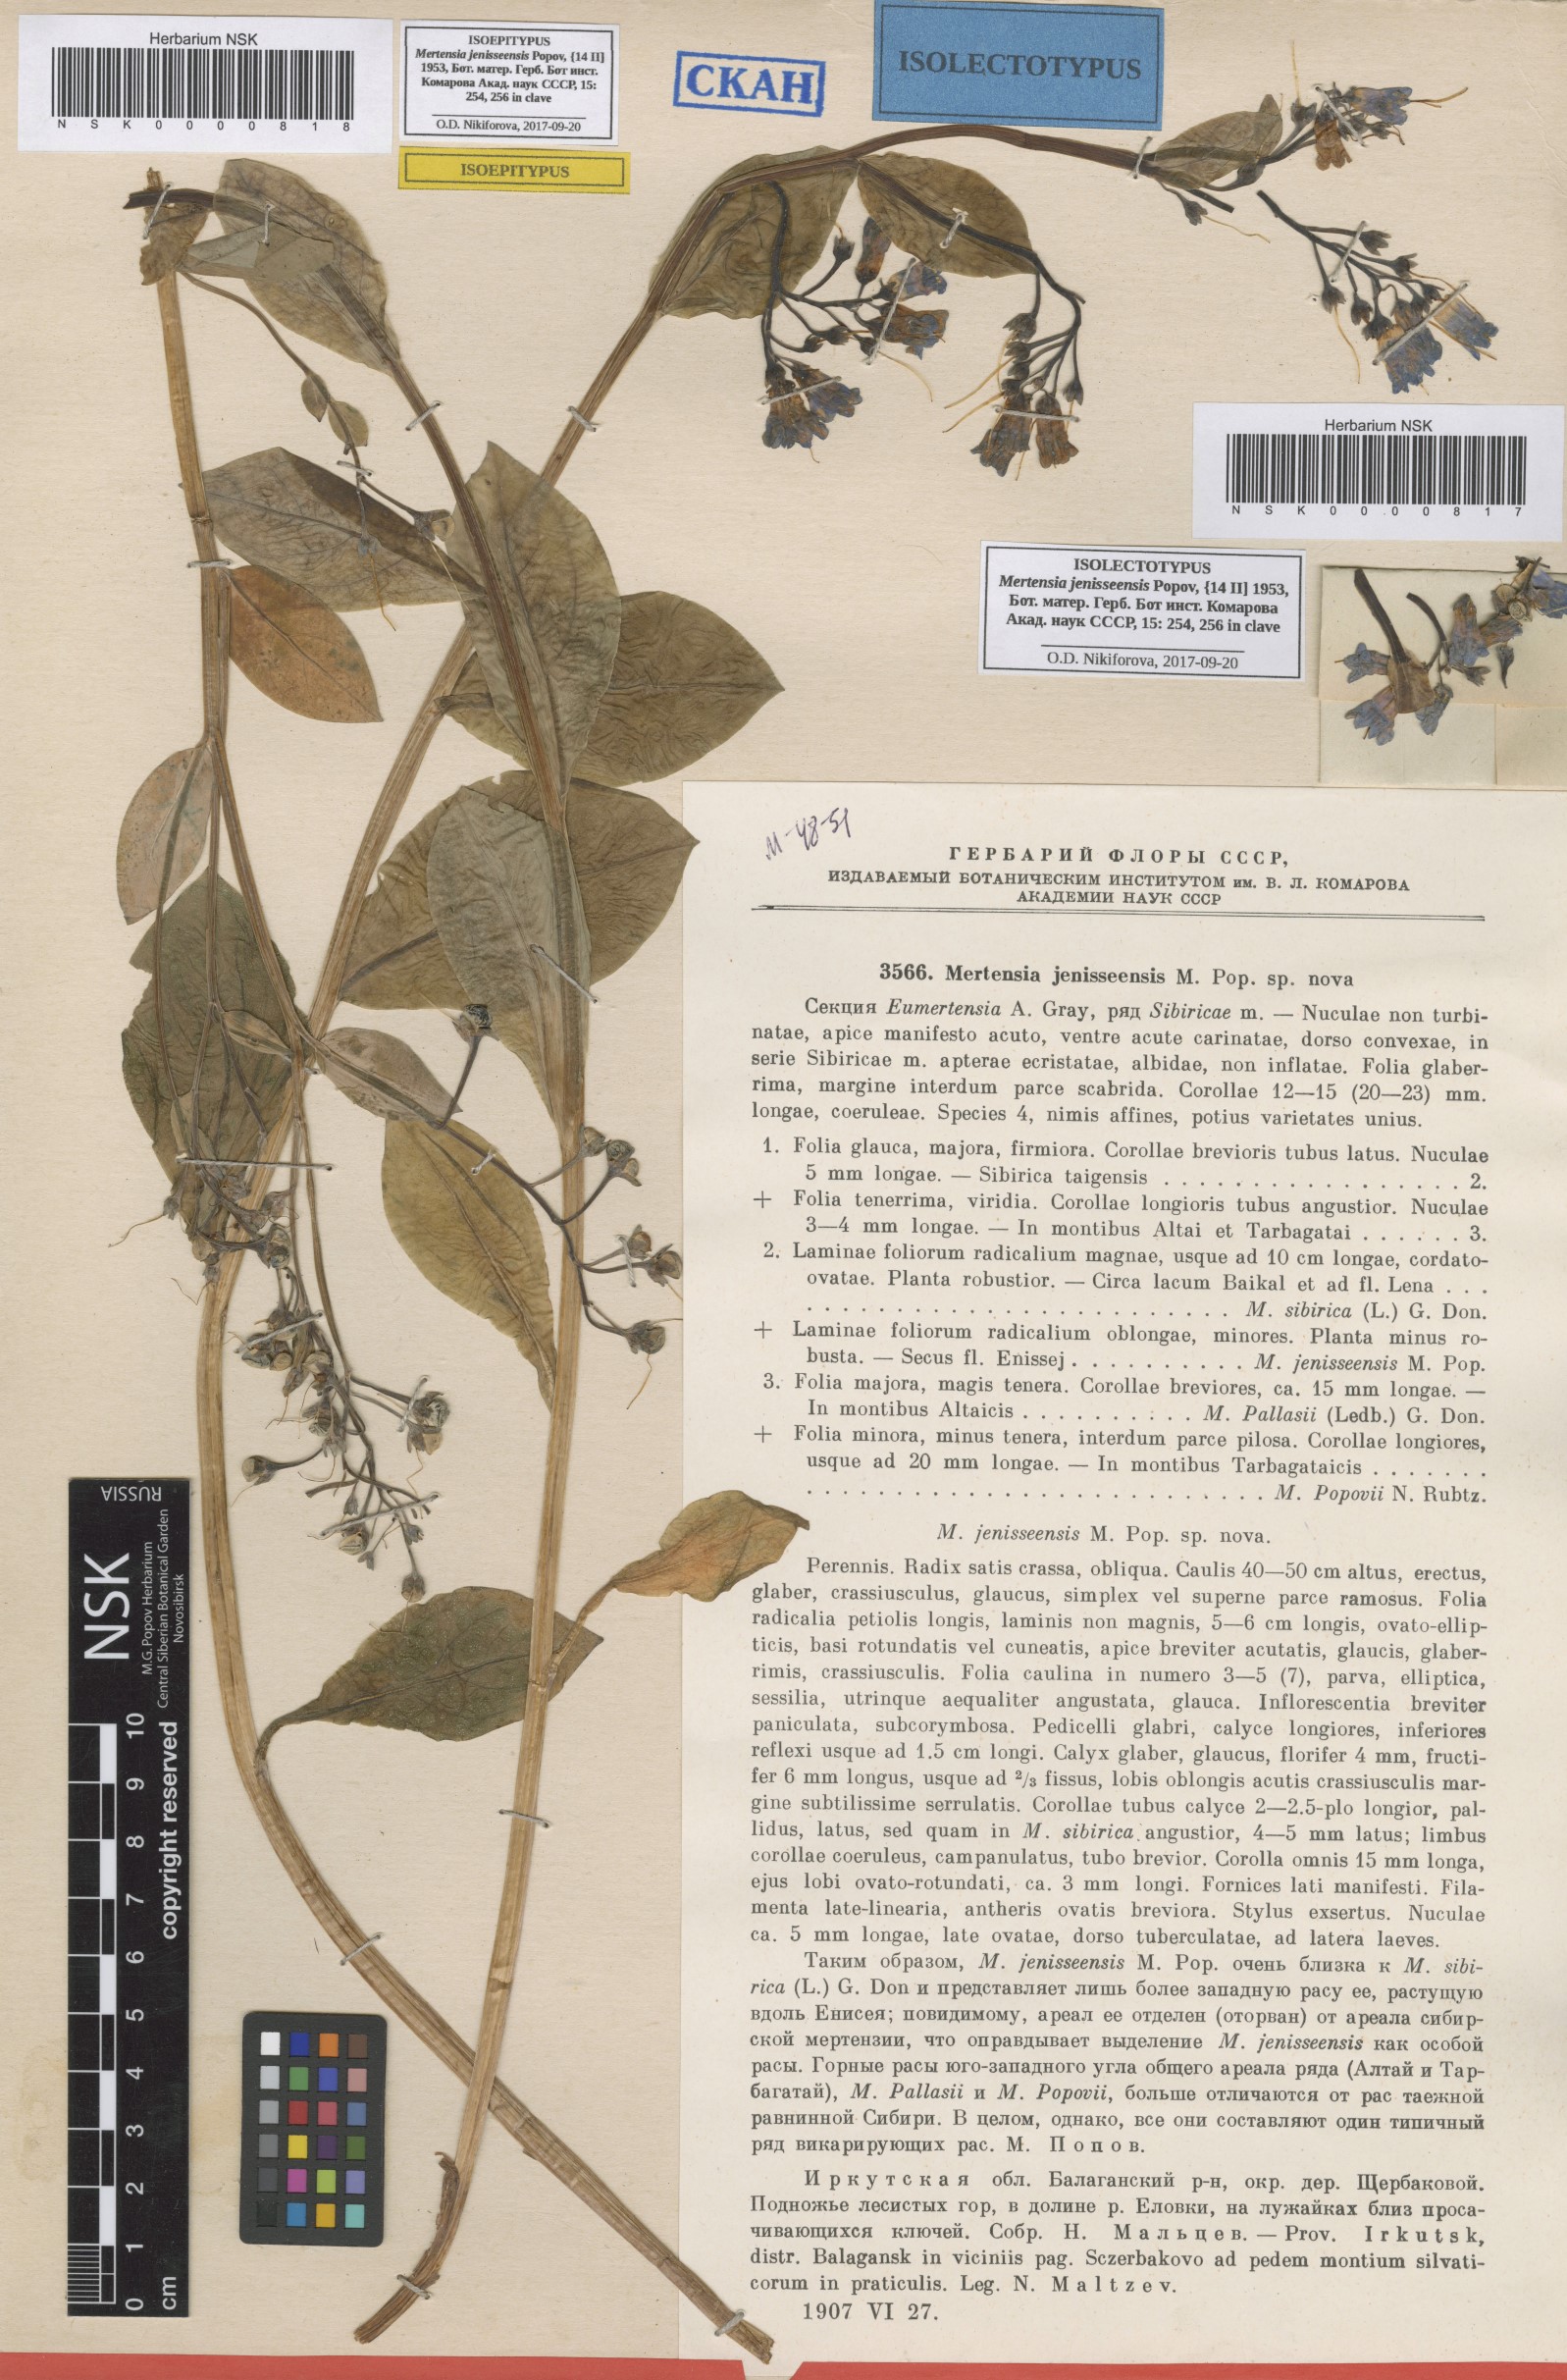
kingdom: Plantae
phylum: Tracheophyta
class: Magnoliopsida
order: Boraginales
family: Boraginaceae
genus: Mertensia
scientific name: Mertensia sibirica
